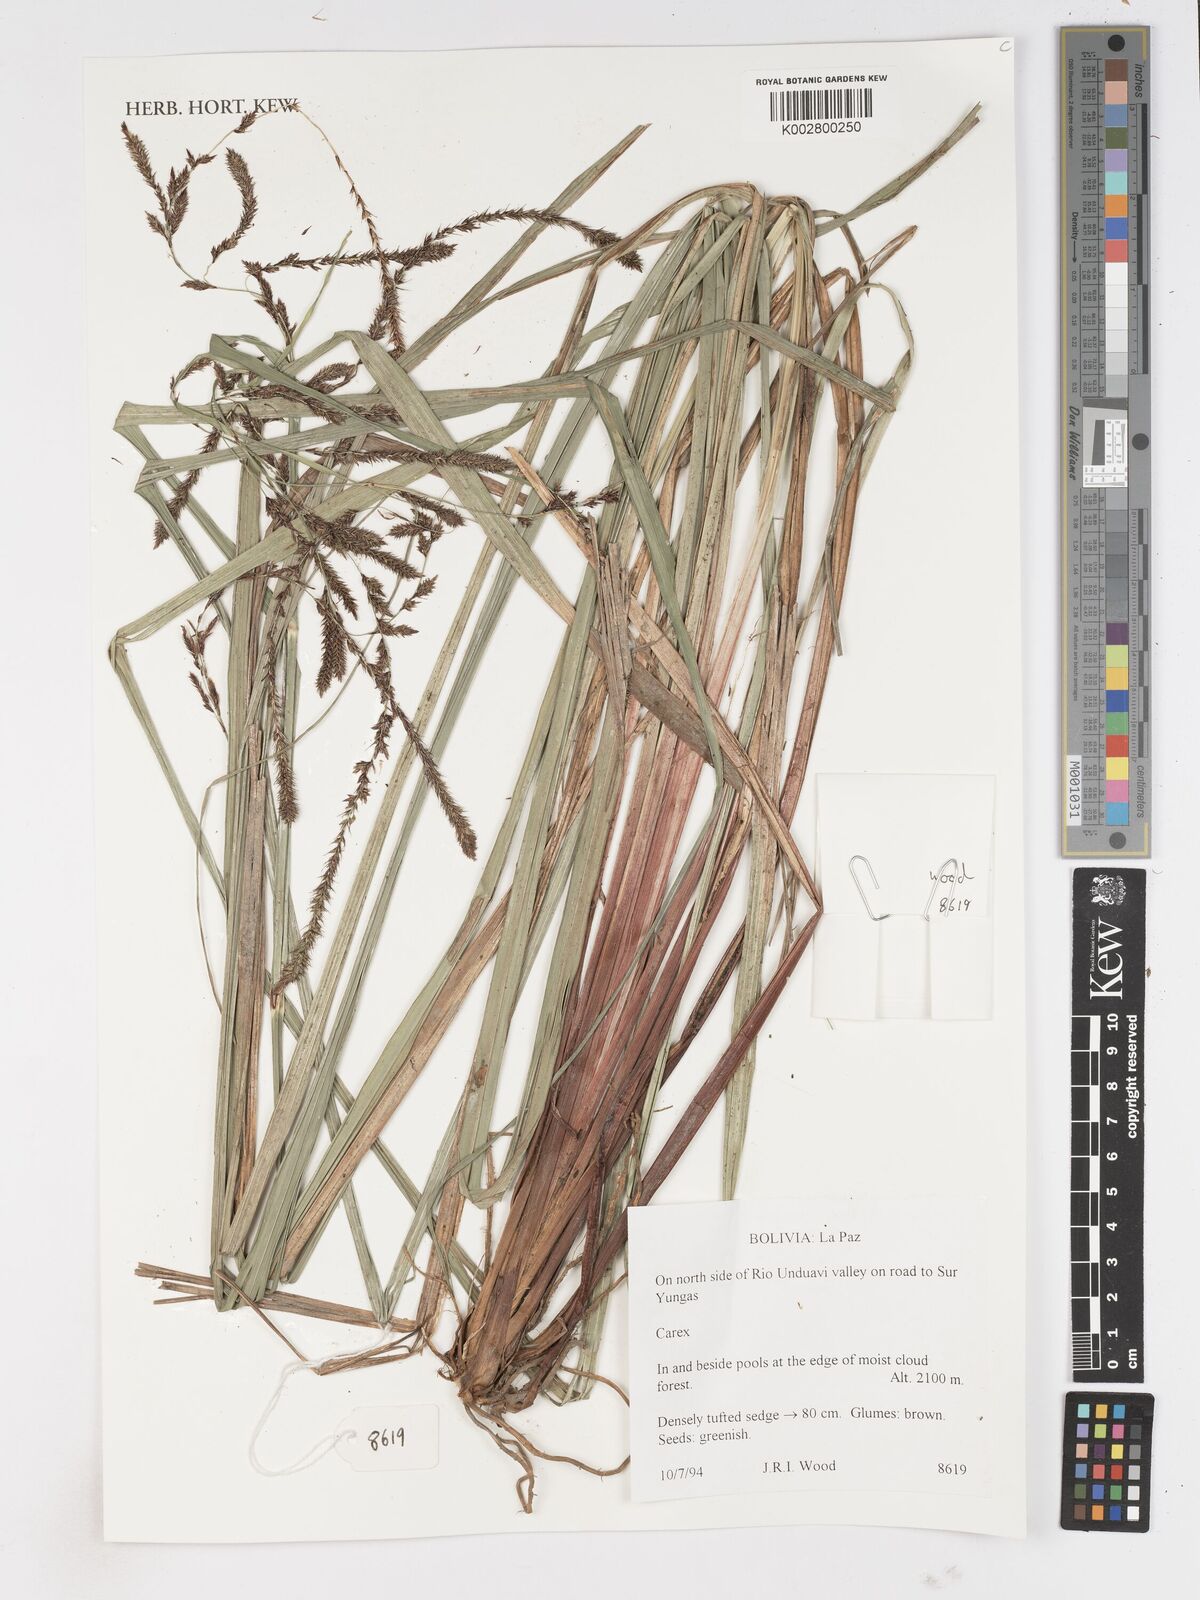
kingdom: Plantae
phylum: Tracheophyta
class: Liliopsida
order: Poales
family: Cyperaceae
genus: Carex
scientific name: Carex
